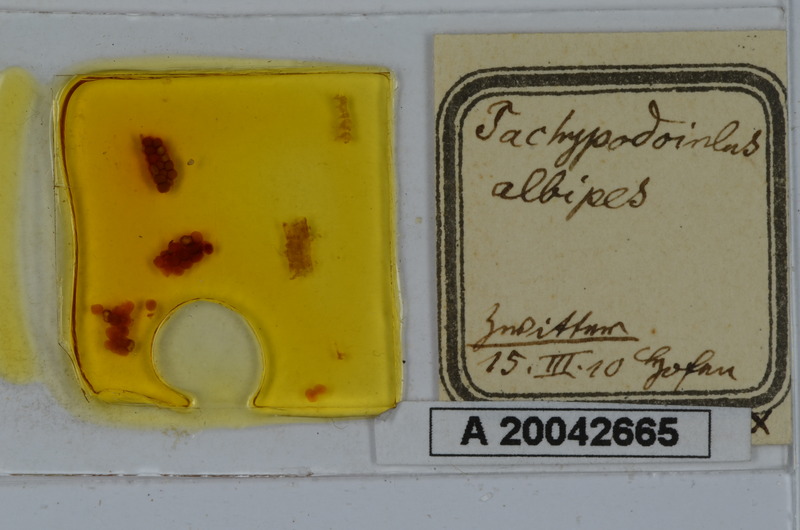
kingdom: Animalia
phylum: Arthropoda
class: Diplopoda
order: Julida
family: Julidae
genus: Tachypodoiulus
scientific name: Tachypodoiulus niger
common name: White-legged snake millipede
